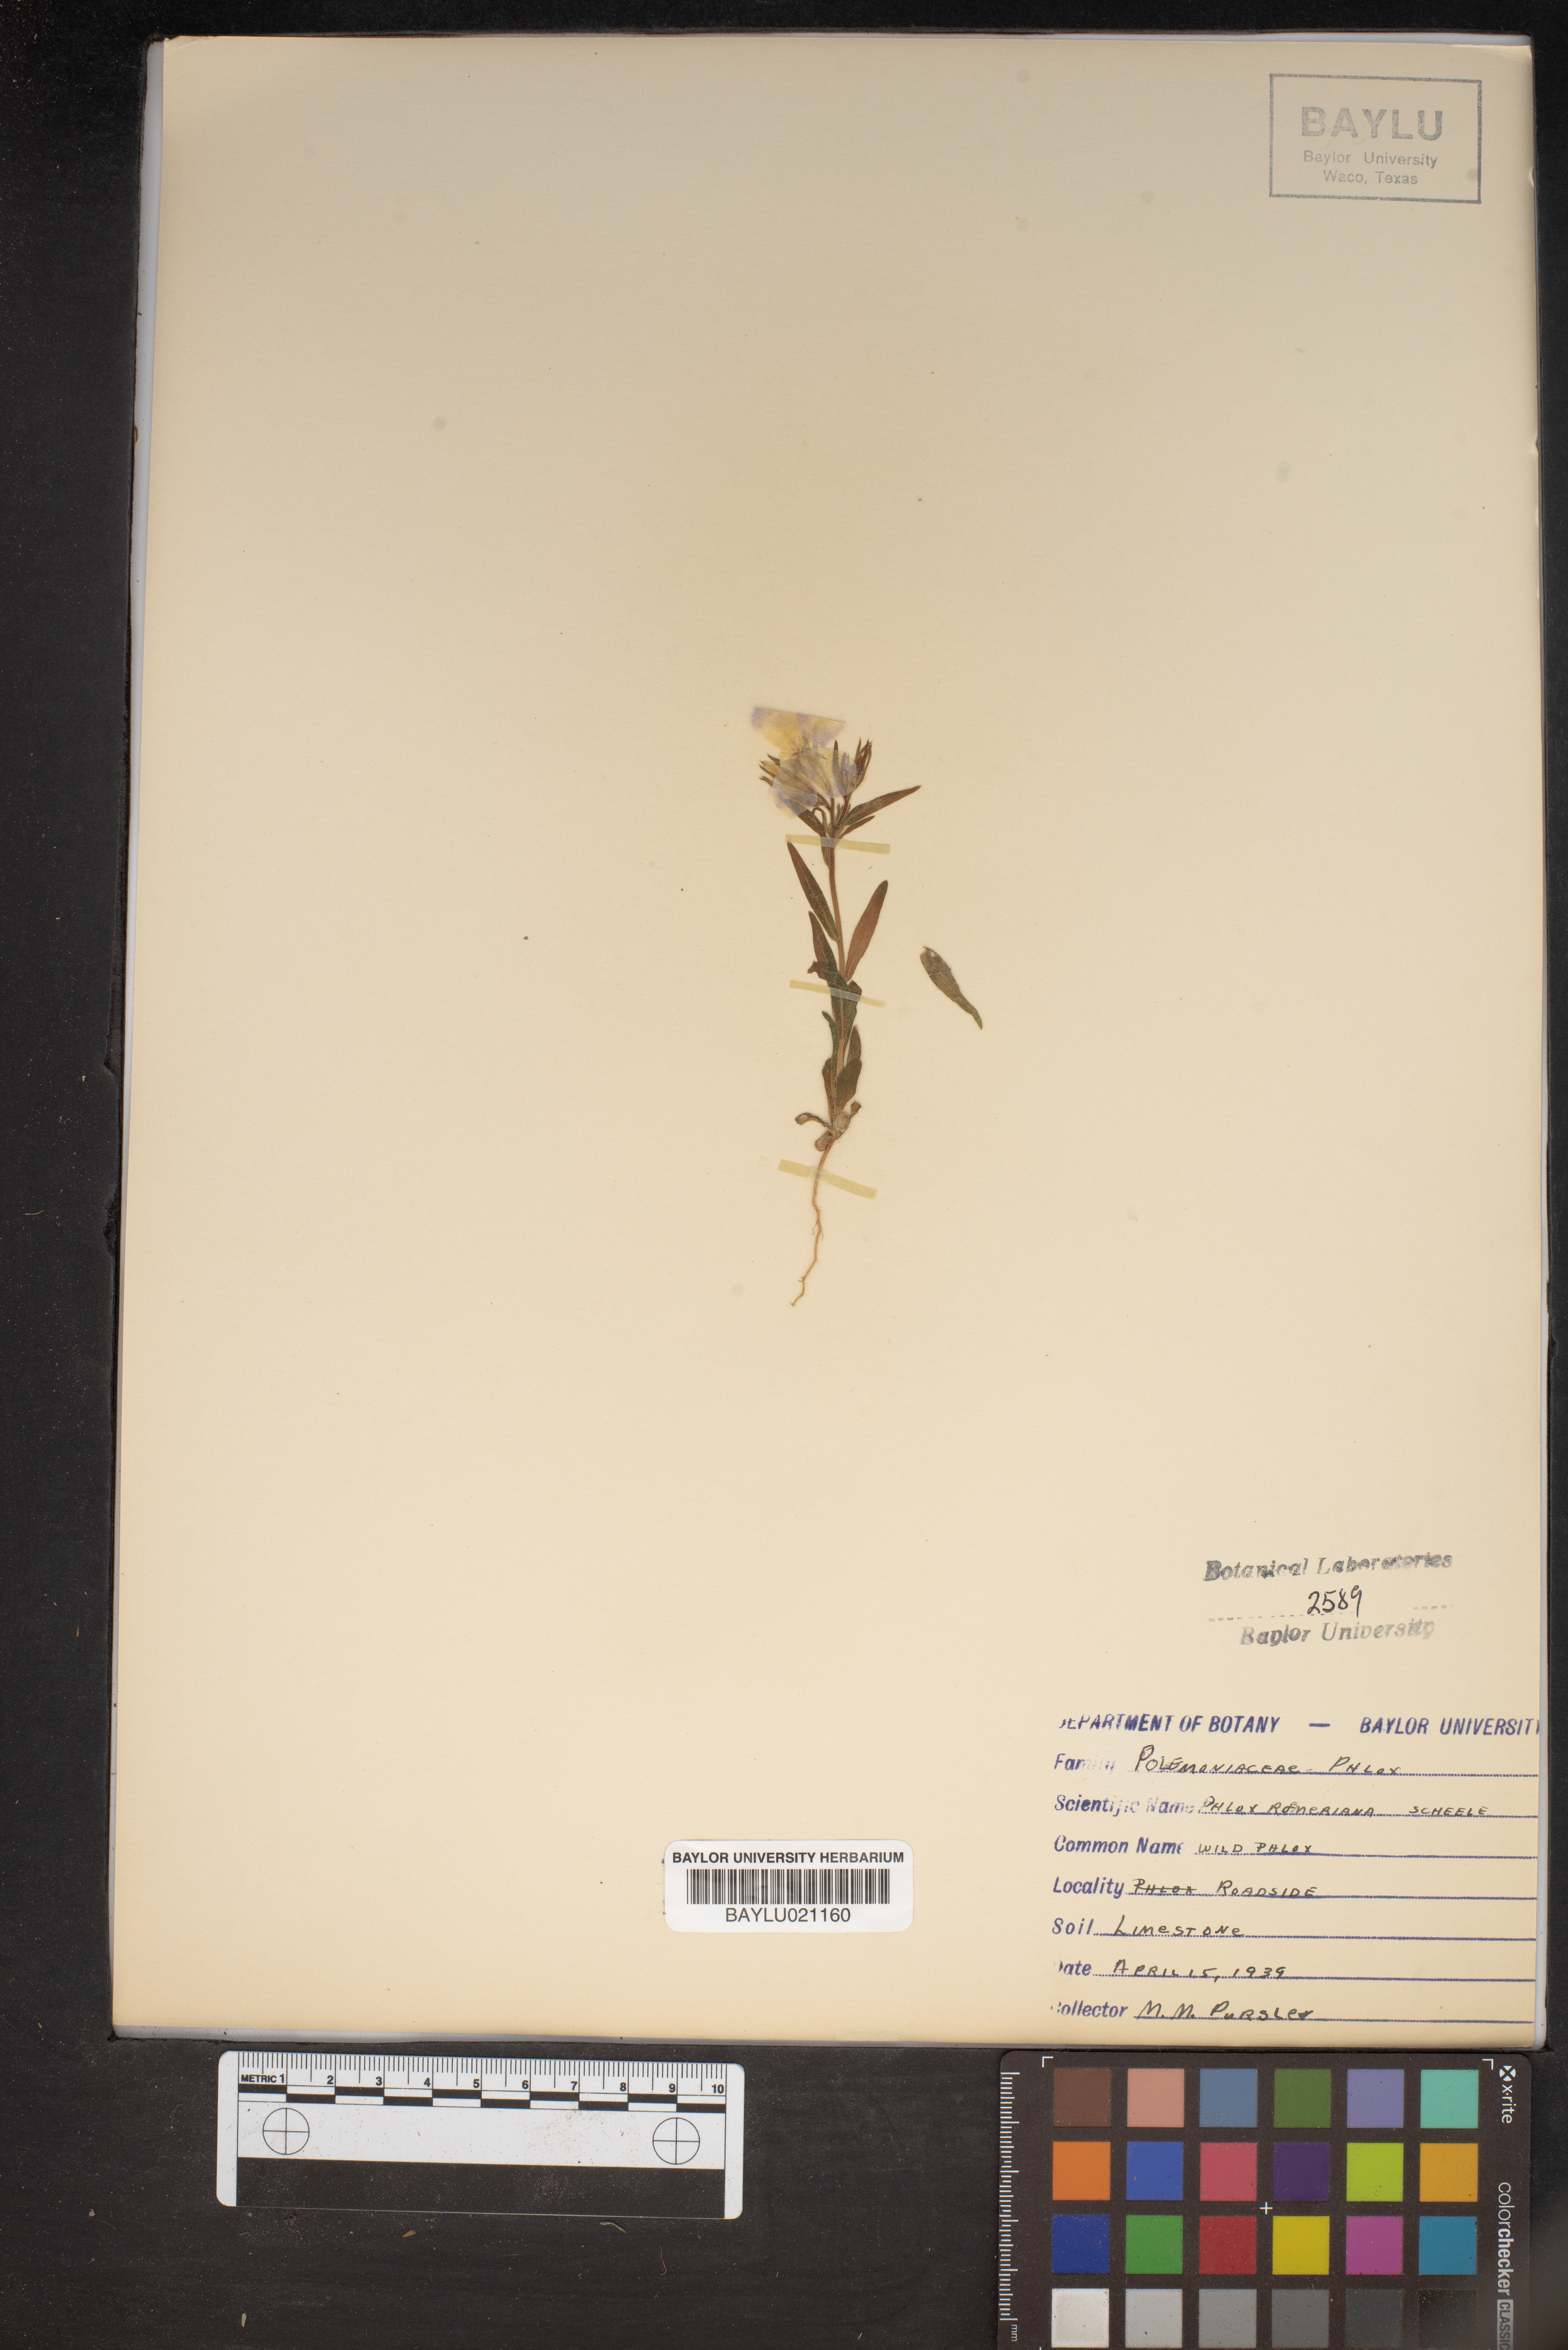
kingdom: Plantae
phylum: Tracheophyta
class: Magnoliopsida
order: Ericales
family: Polemoniaceae
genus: Phlox
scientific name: Phlox roemeriana
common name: Roemer's phlox
